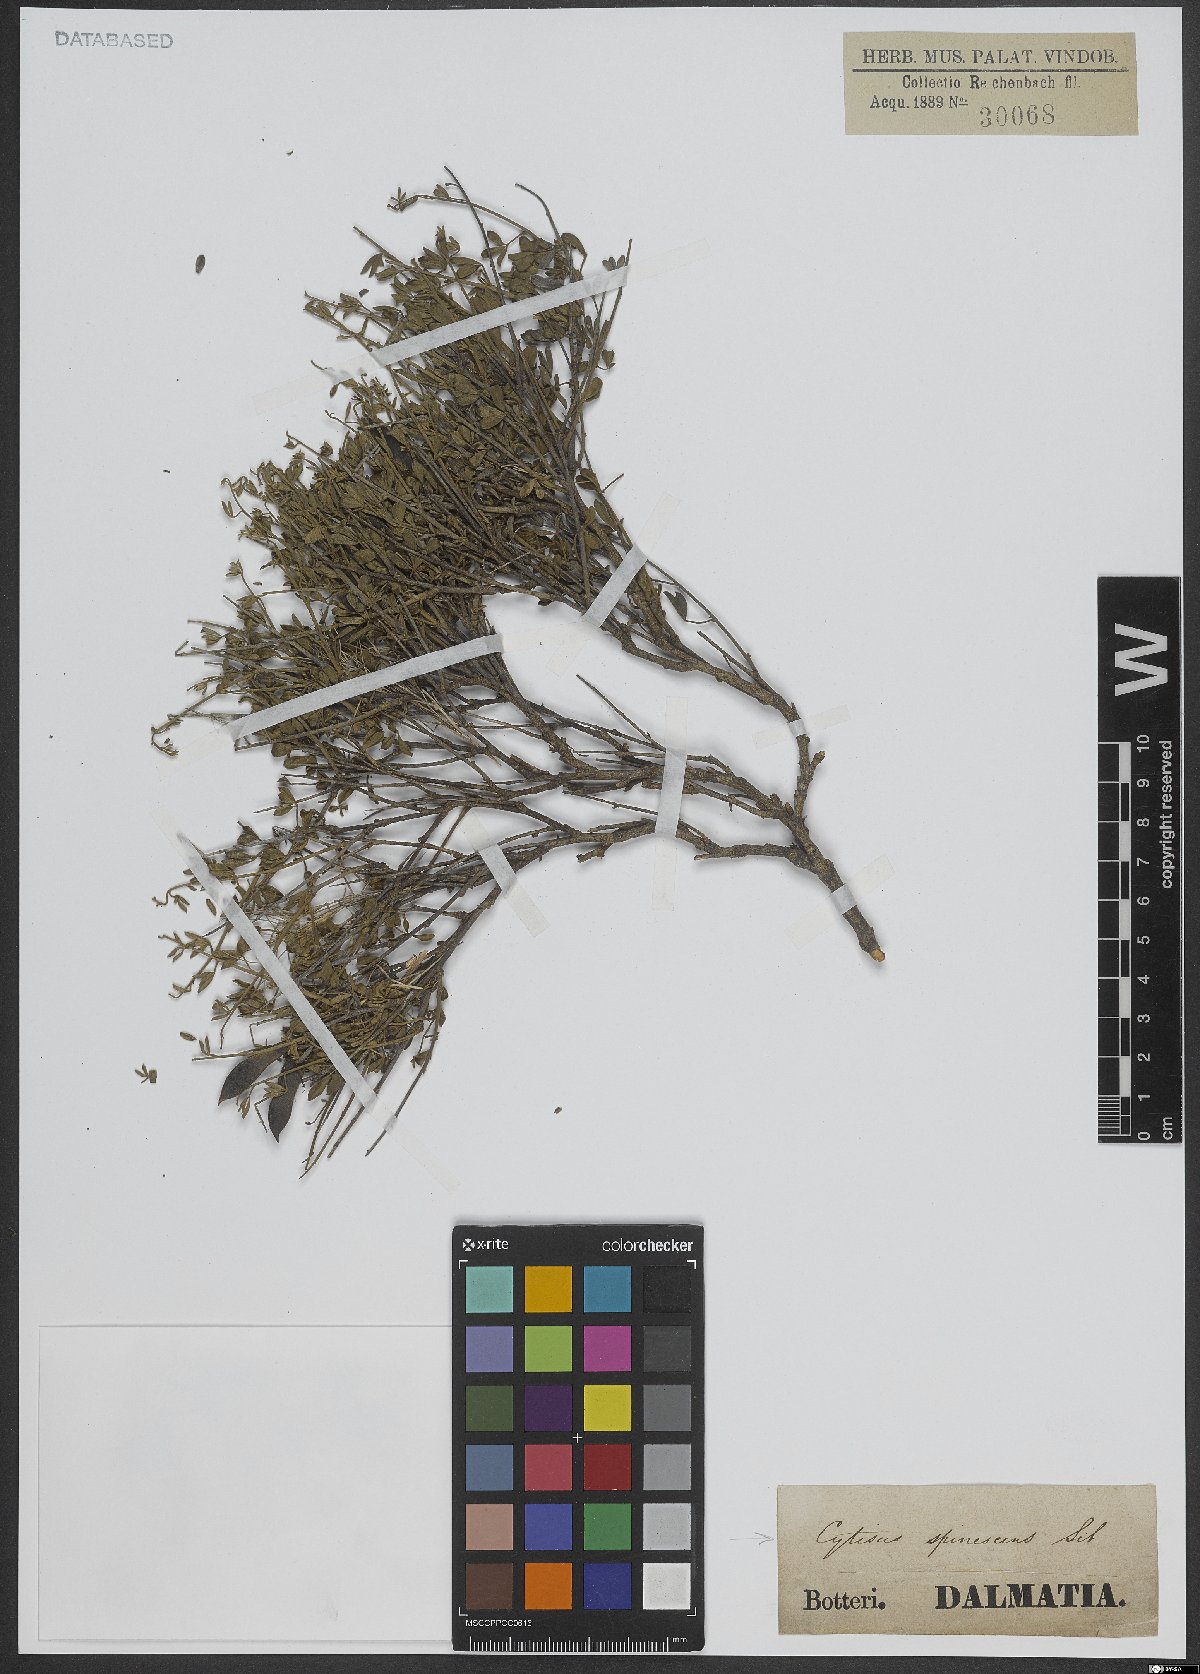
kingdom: Plantae
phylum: Tracheophyta
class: Magnoliopsida
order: Fabales
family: Fabaceae
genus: Chamaecytisus
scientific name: Chamaecytisus spinescens
